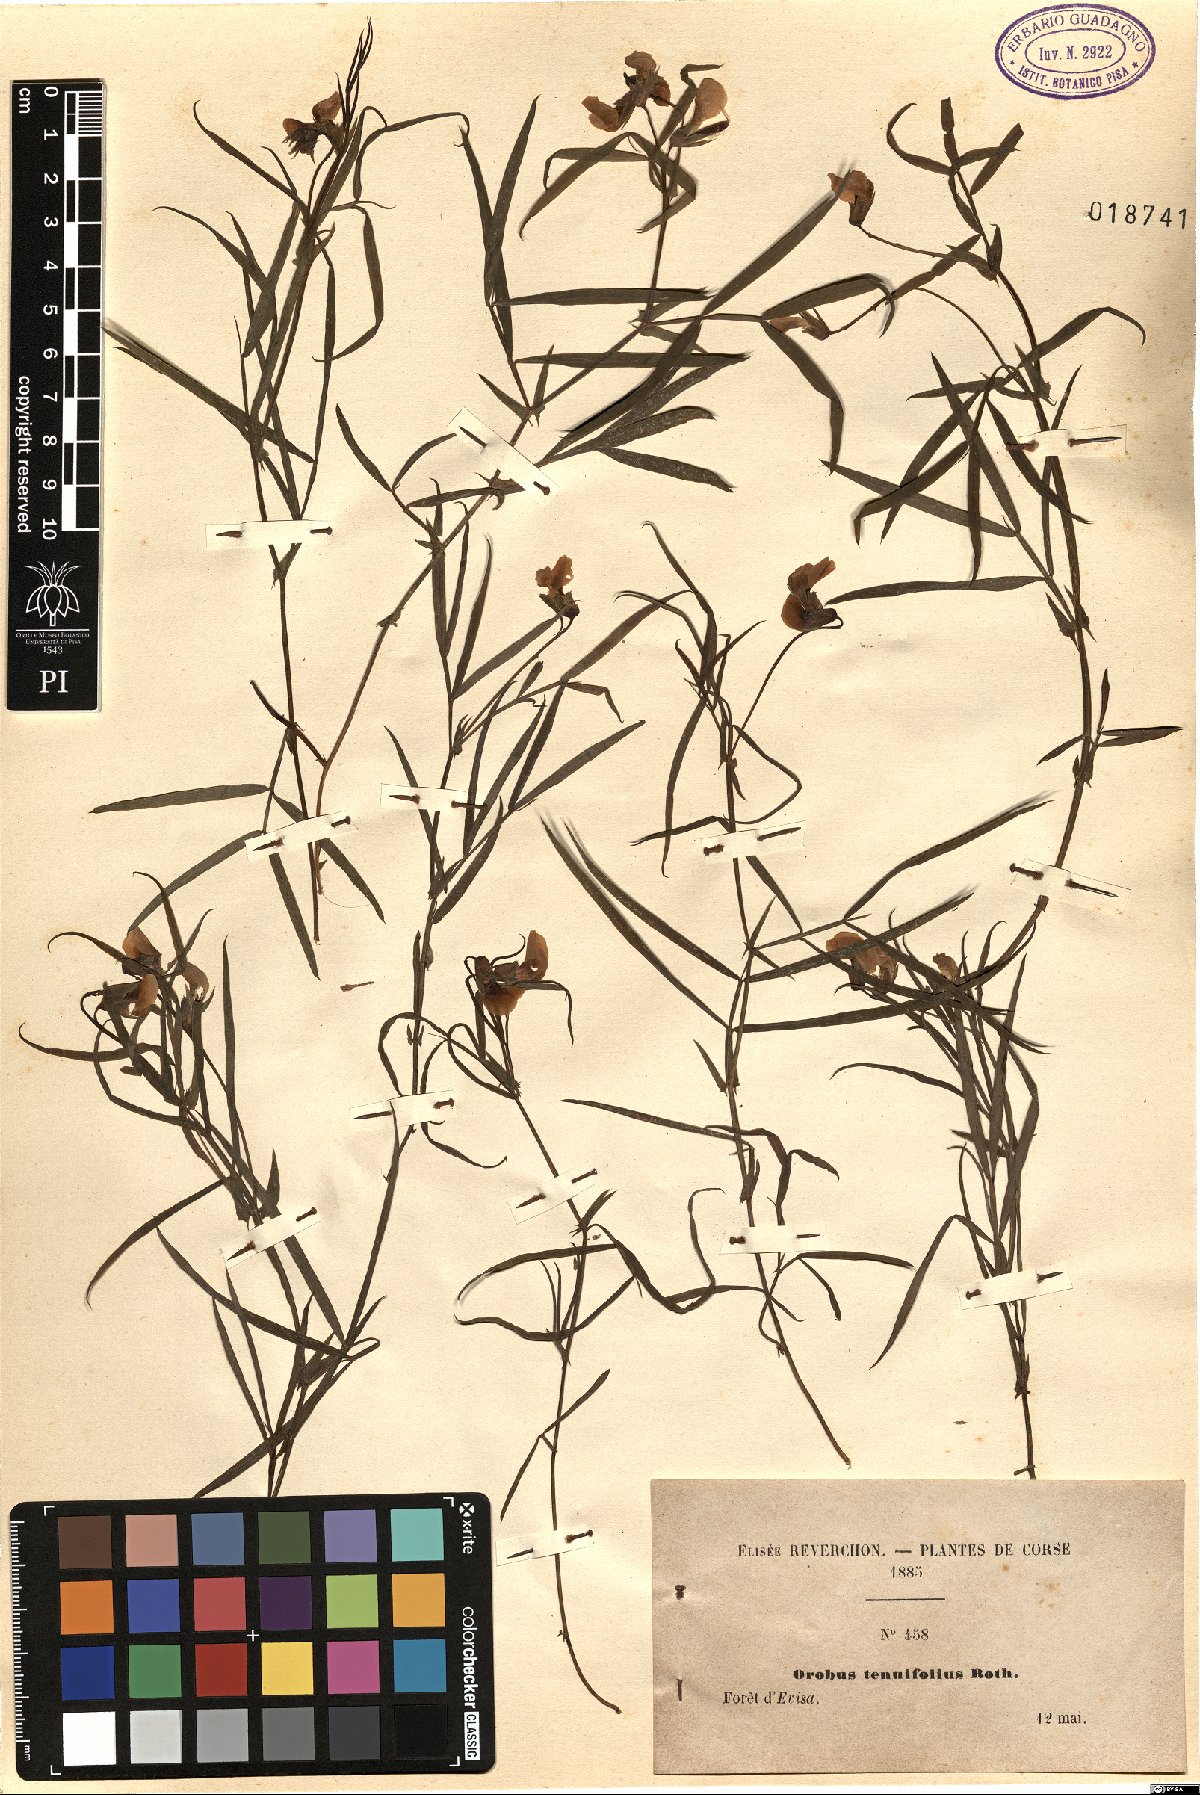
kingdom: Plantae
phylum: Tracheophyta
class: Magnoliopsida
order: Fabales
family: Fabaceae
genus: Lathyrus
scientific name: Lathyrus linifolius
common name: Bitter-vetch
